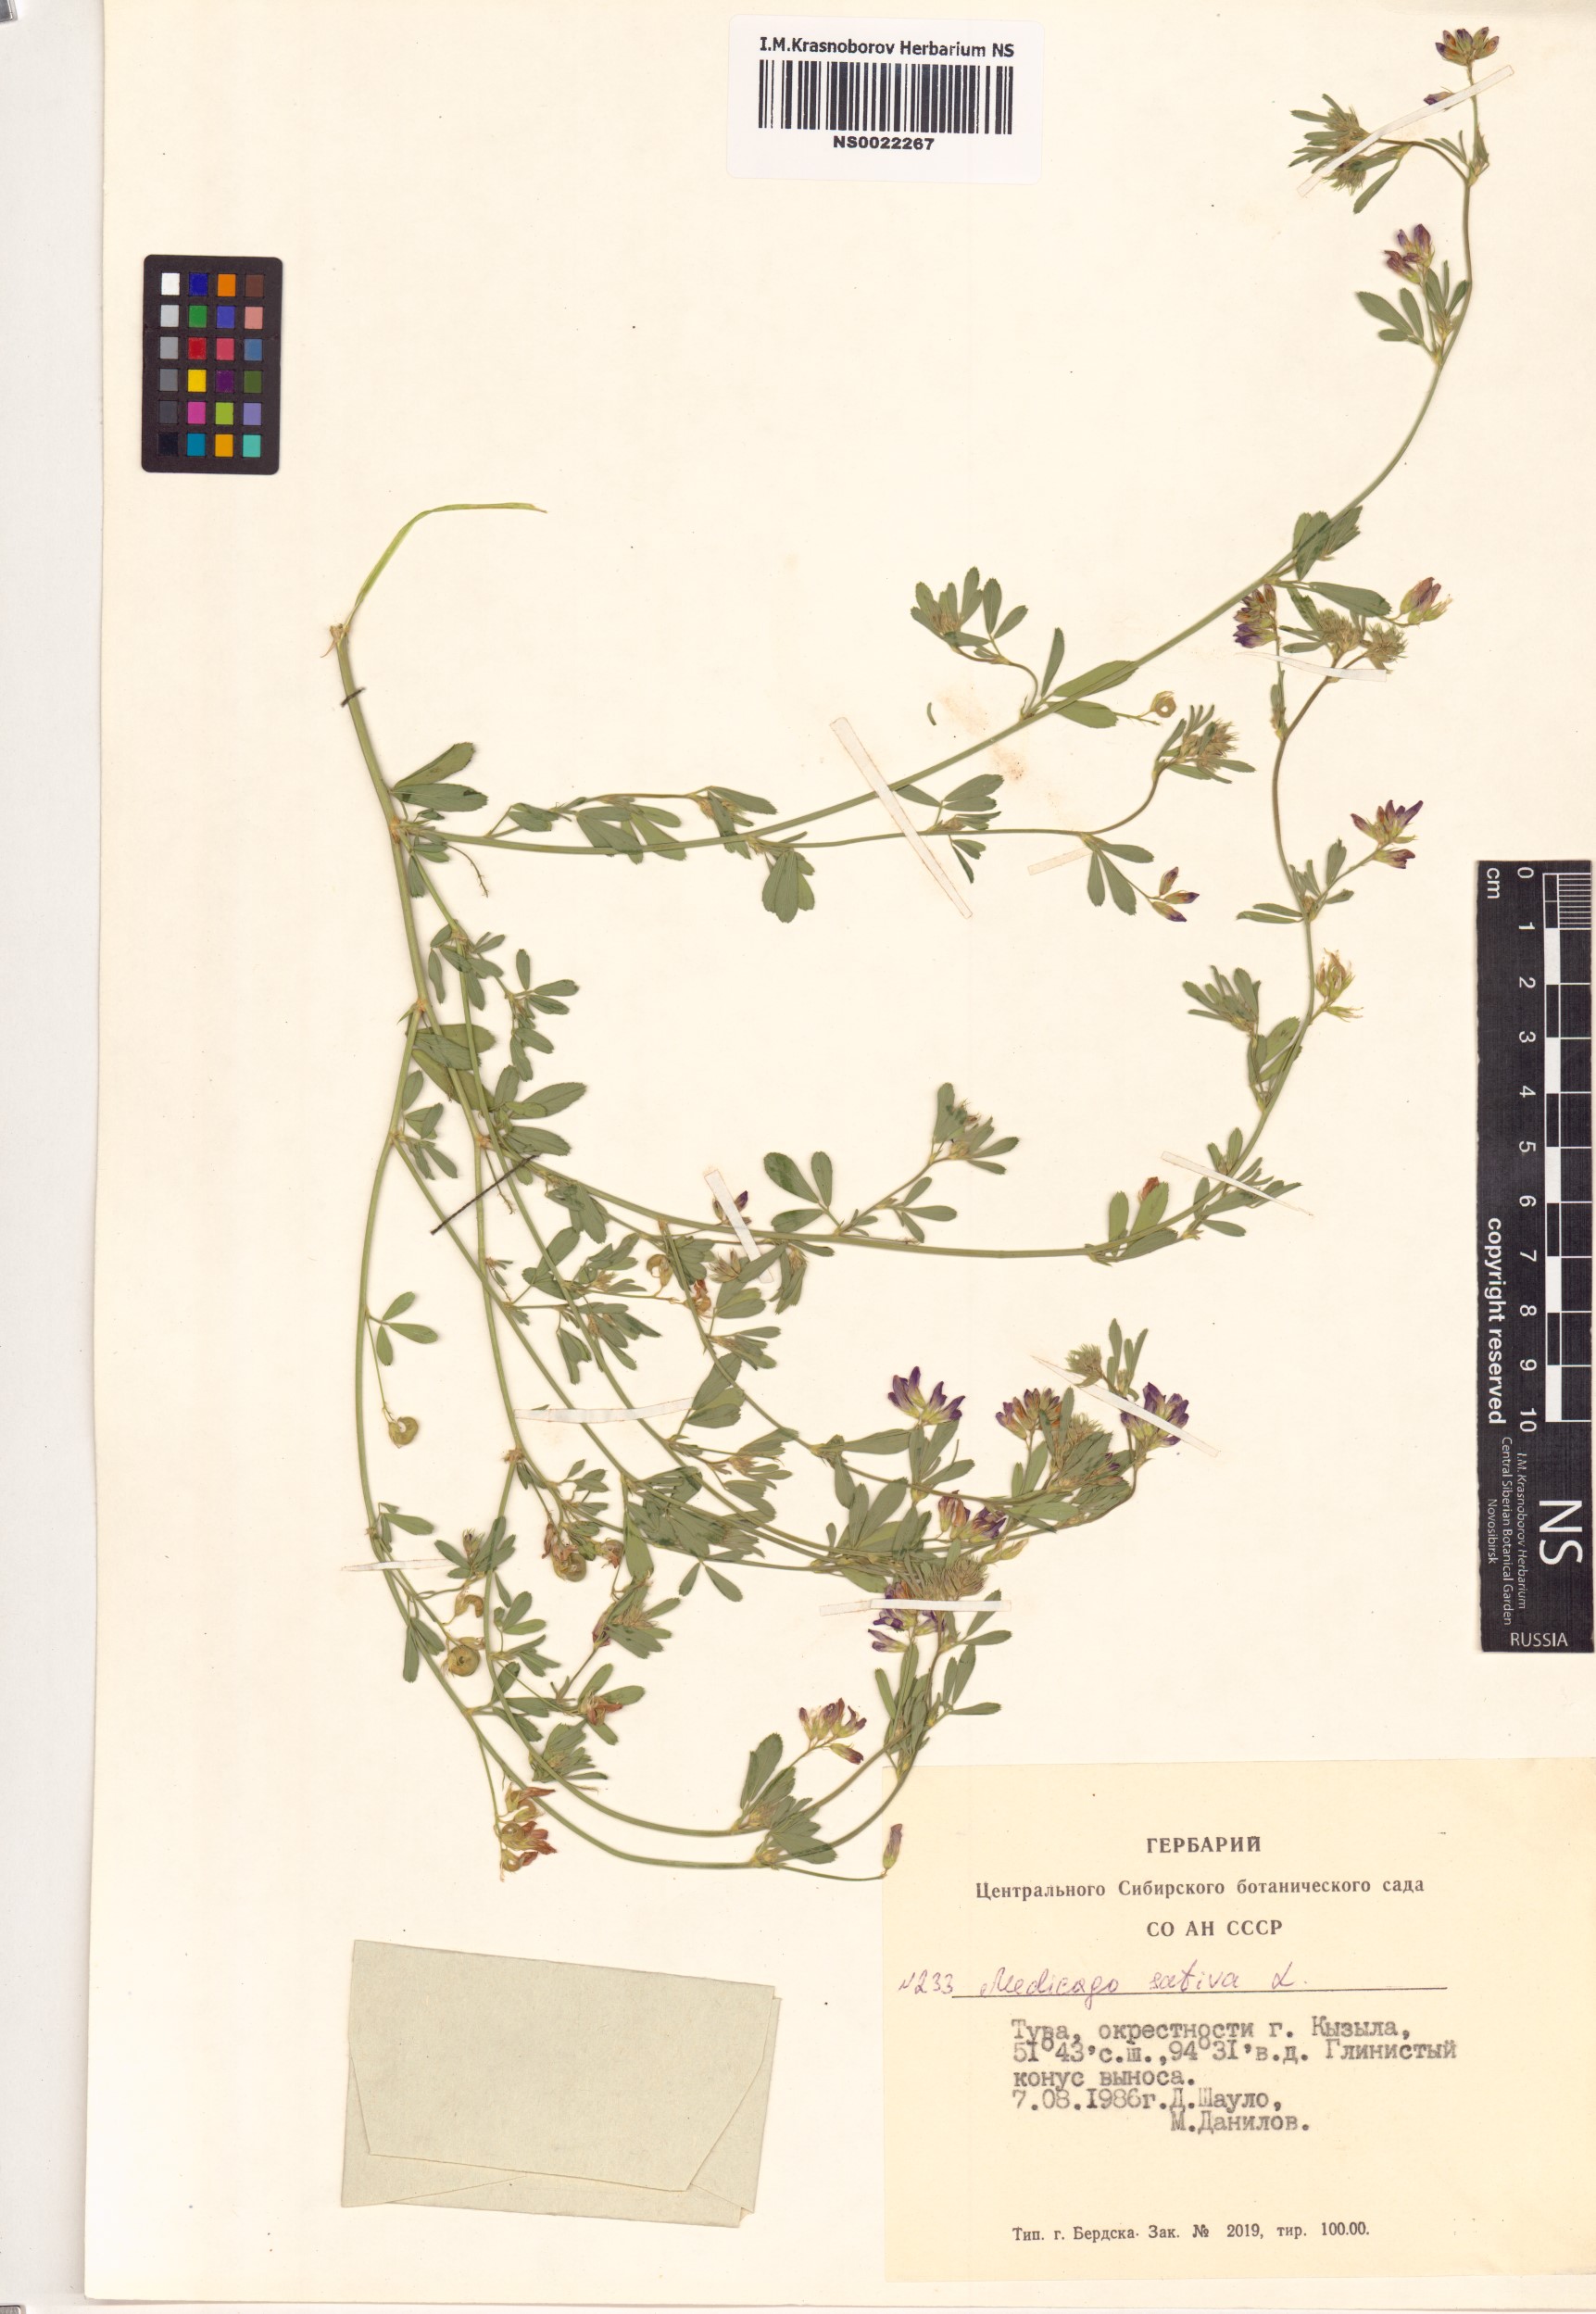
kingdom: Plantae
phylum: Tracheophyta
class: Magnoliopsida
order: Fabales
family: Fabaceae
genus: Medicago
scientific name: Medicago sativa
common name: Alfalfa
